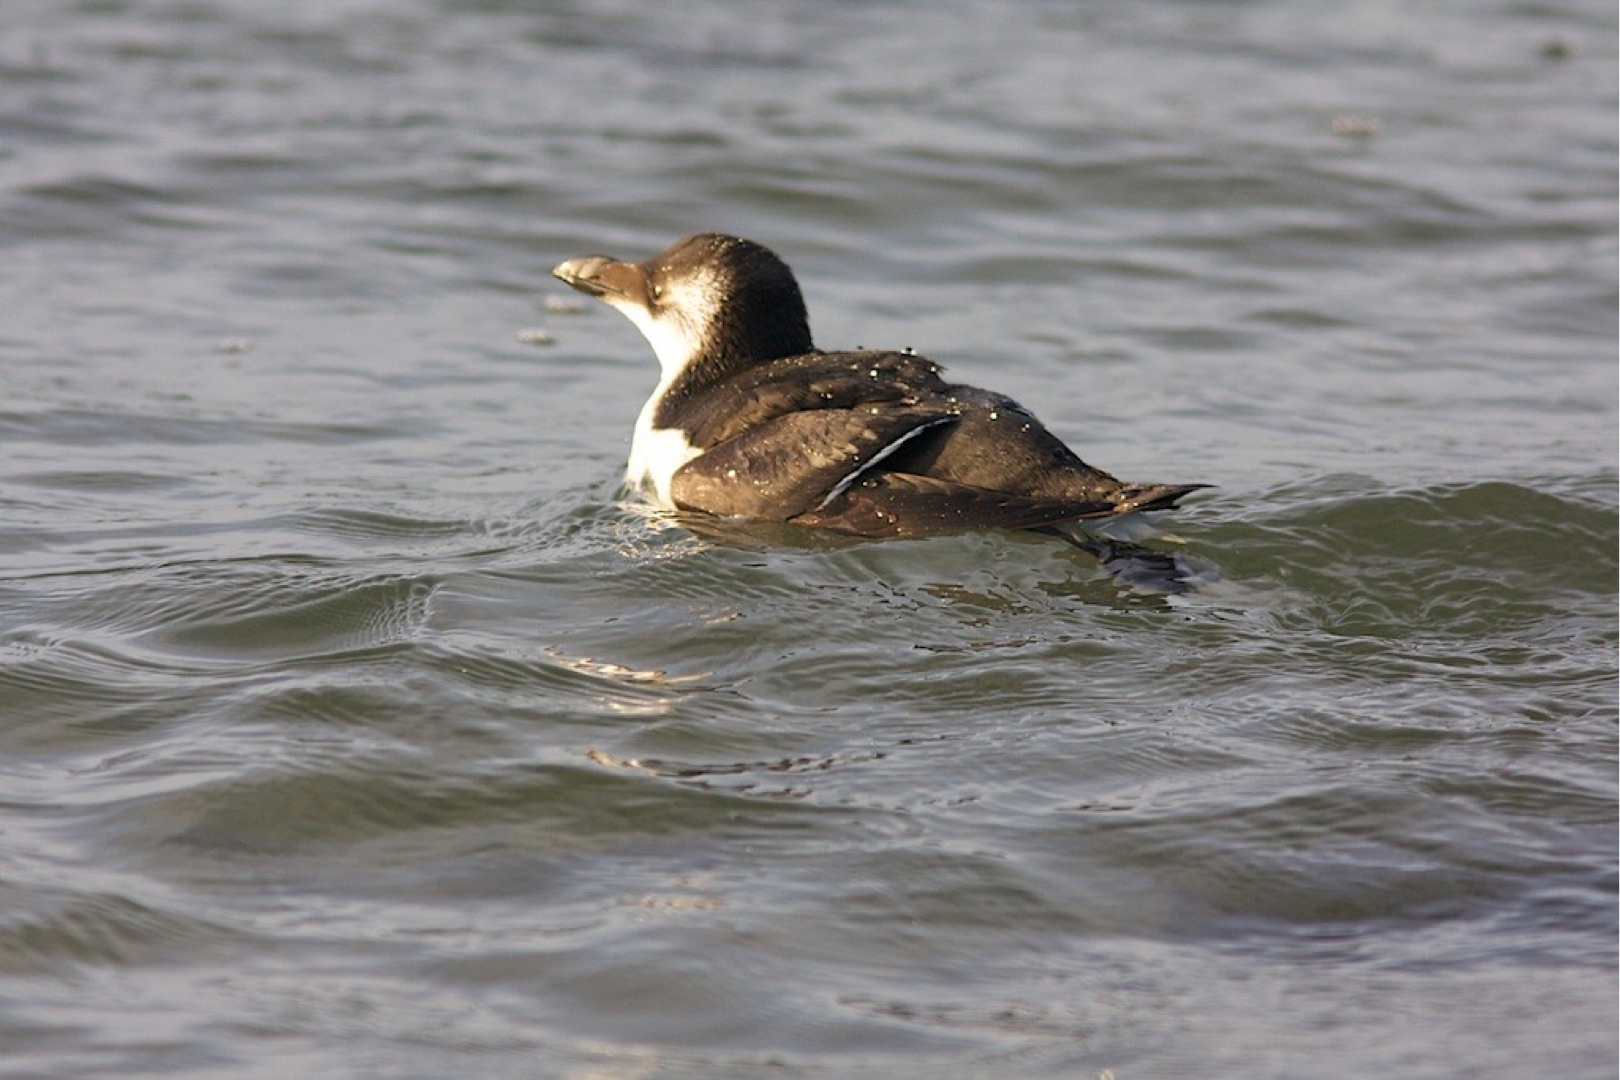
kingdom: Animalia
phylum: Chordata
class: Aves
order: Charadriiformes
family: Alcidae
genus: Alca
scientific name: Alca torda
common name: Alk
